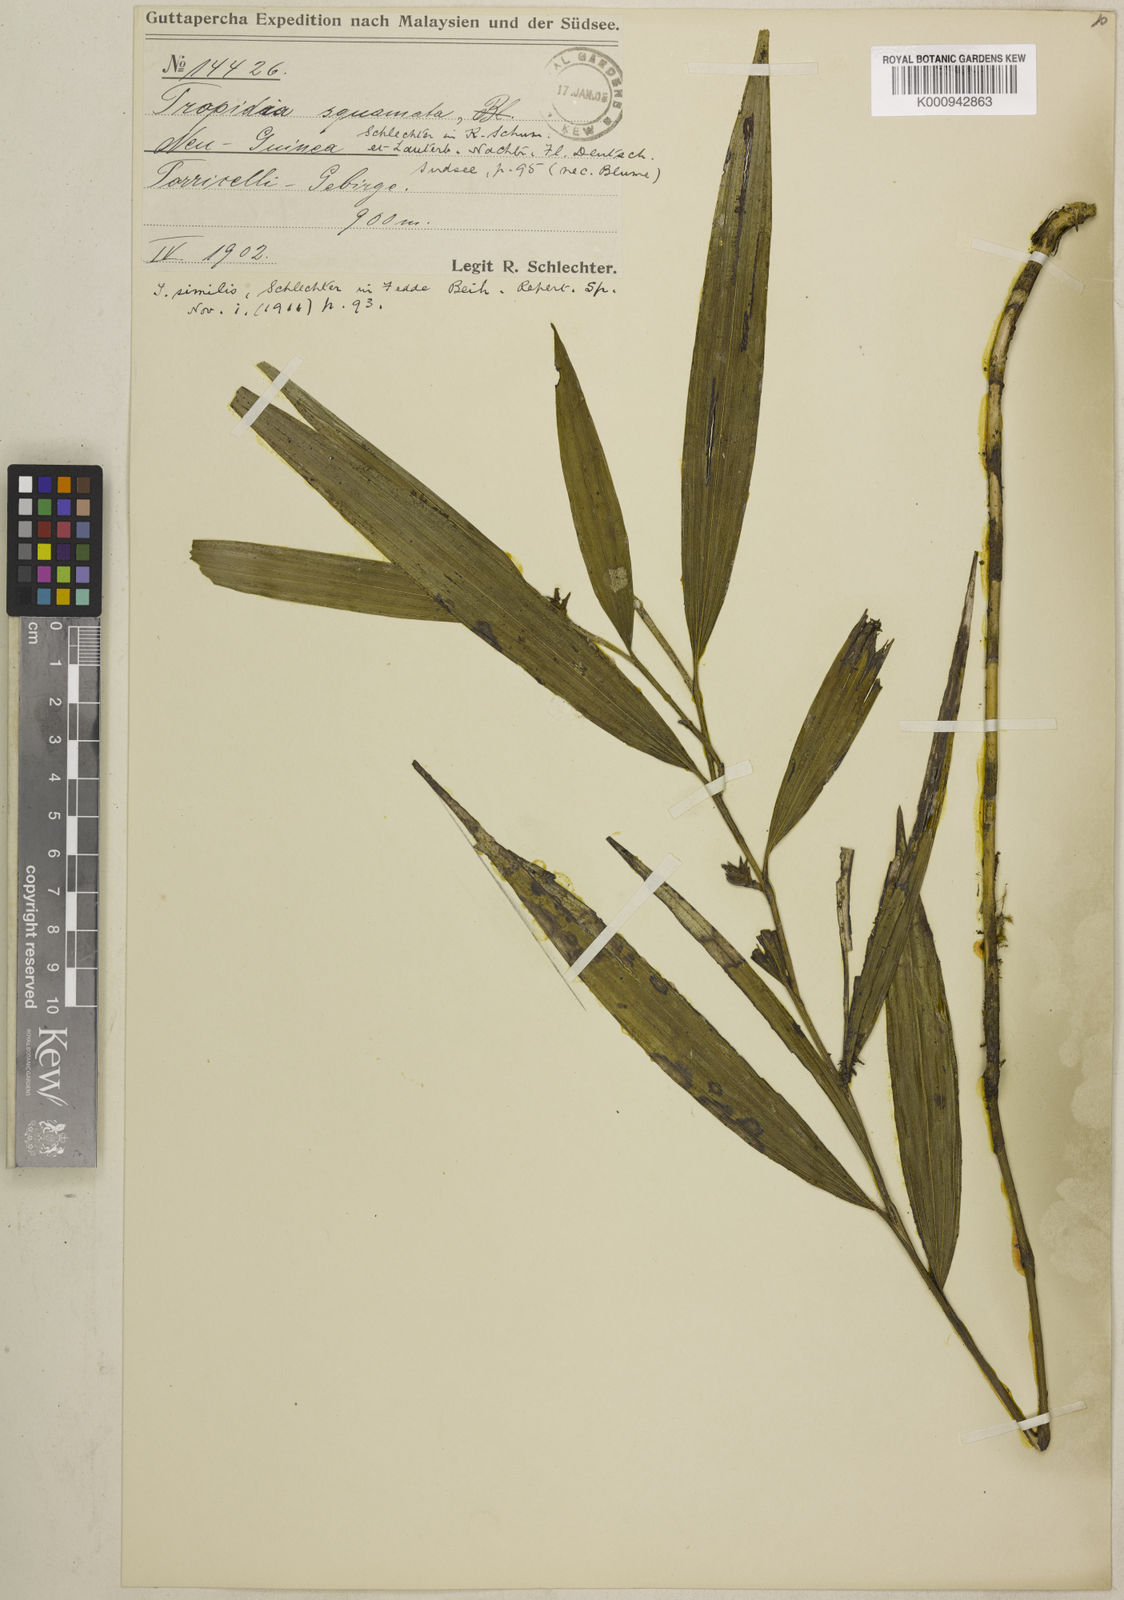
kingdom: Plantae
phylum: Tracheophyta
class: Liliopsida
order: Asparagales
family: Orchidaceae
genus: Tropidia
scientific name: Tropidia similis
